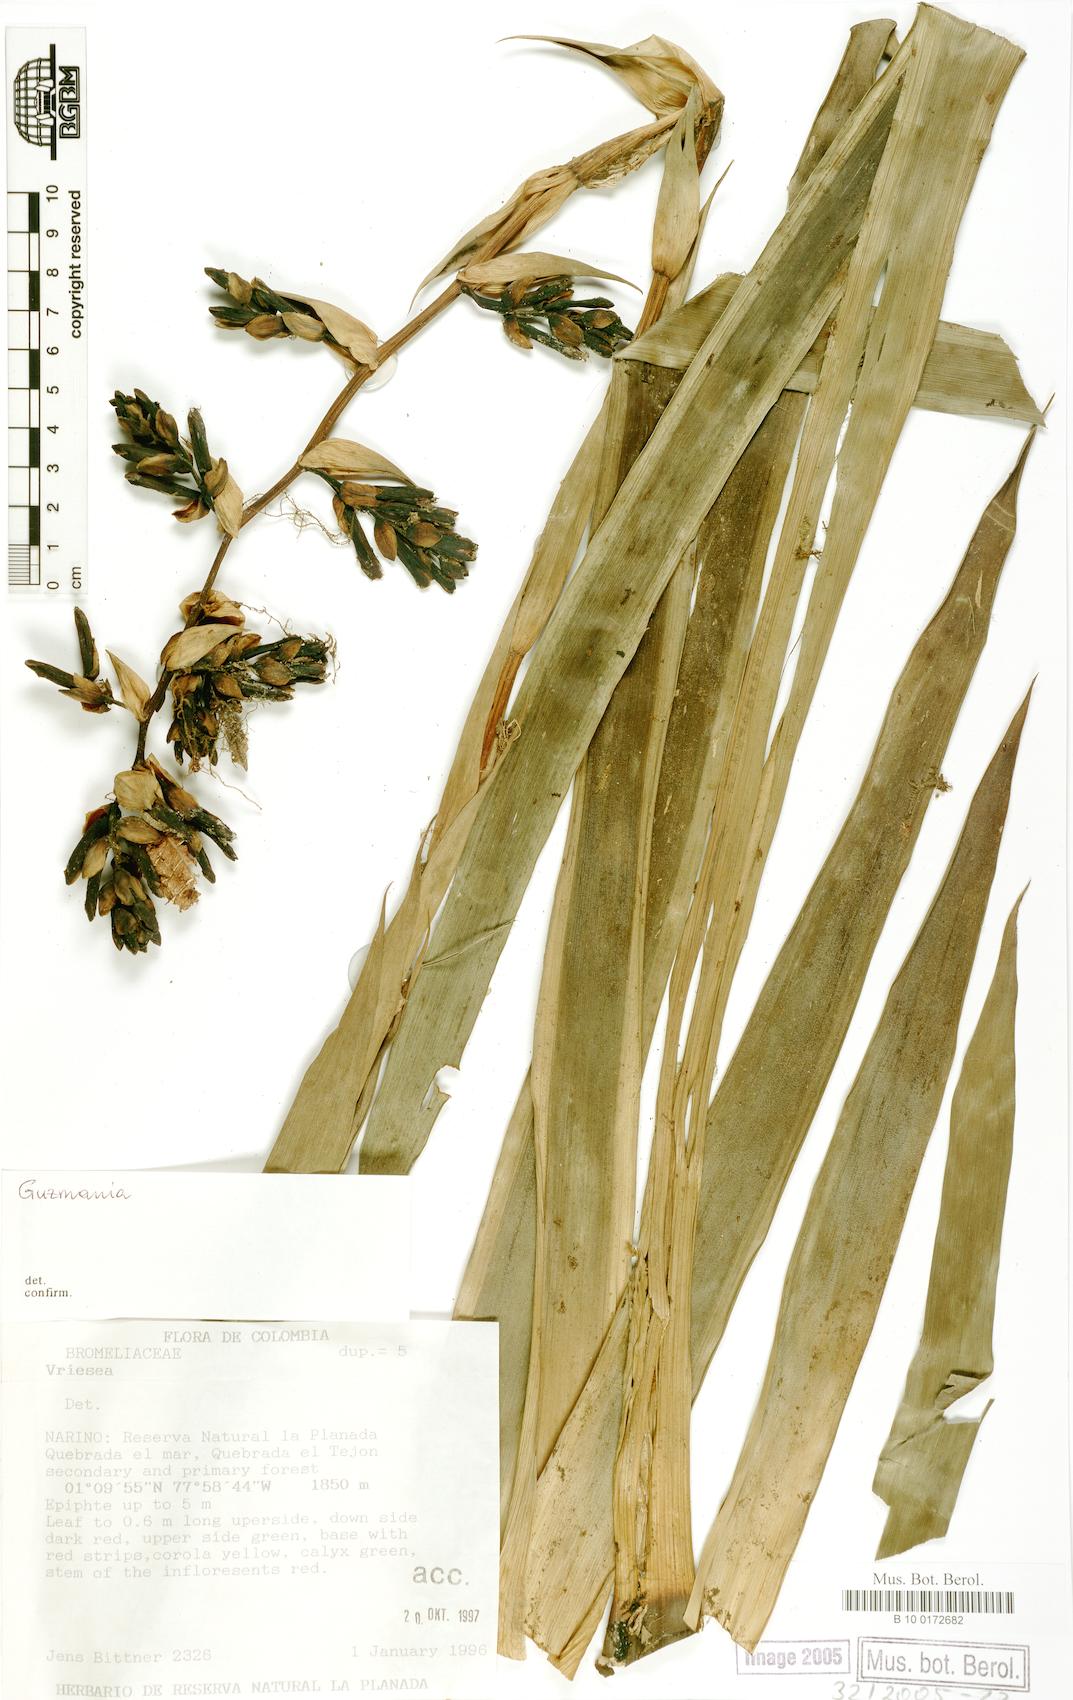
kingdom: Plantae
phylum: Tracheophyta
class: Liliopsida
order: Poales
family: Bromeliaceae
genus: Guzmania
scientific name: Guzmania
